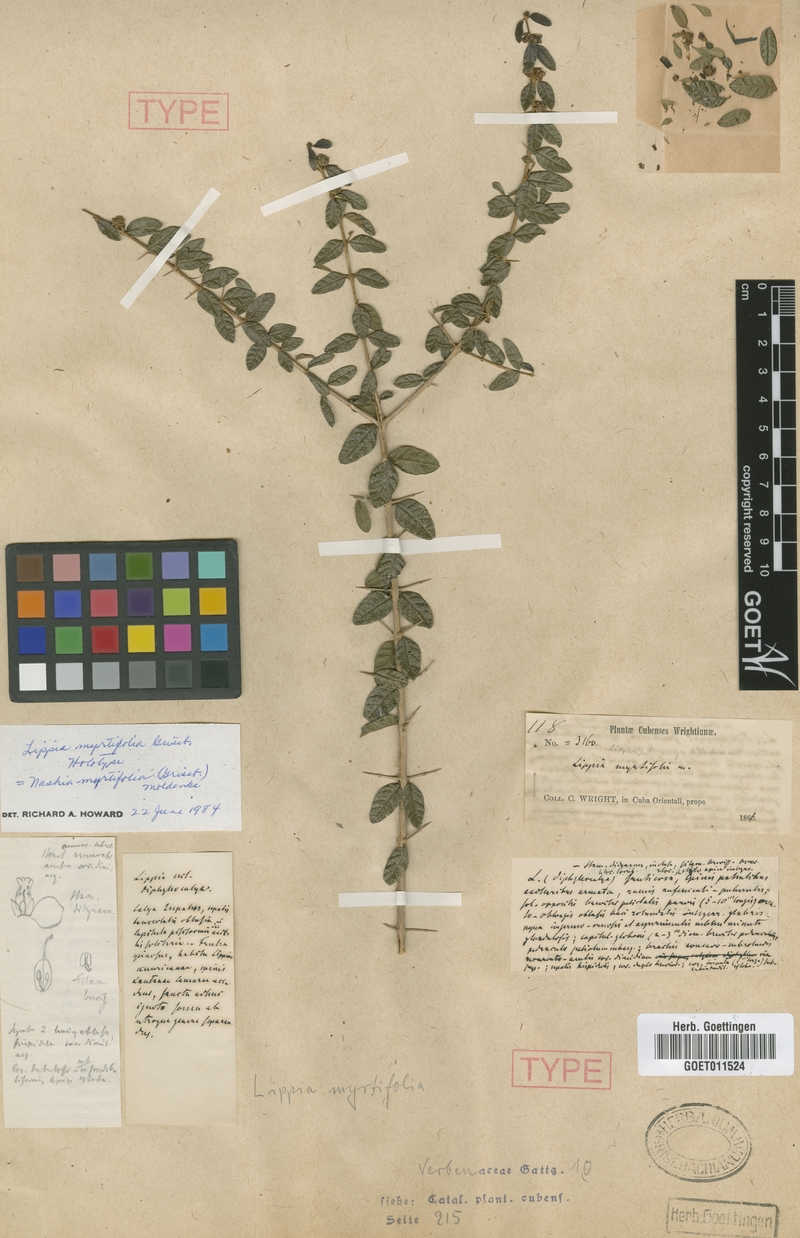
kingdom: Plantae
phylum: Tracheophyta
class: Magnoliopsida
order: Lamiales
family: Verbenaceae
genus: Diphyllocalyx
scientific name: Diphyllocalyx myrtifolius
